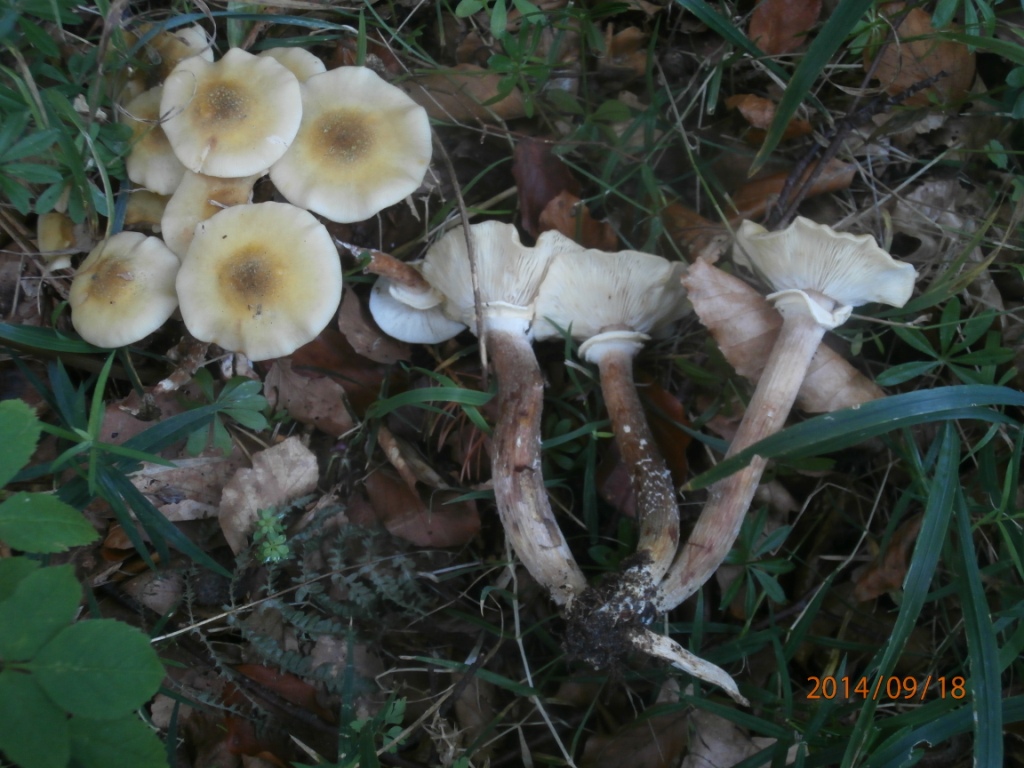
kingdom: Fungi
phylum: Basidiomycota
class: Agaricomycetes
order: Agaricales
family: Physalacriaceae
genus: Armillaria
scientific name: Armillaria mellea
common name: ægte honningsvamp
